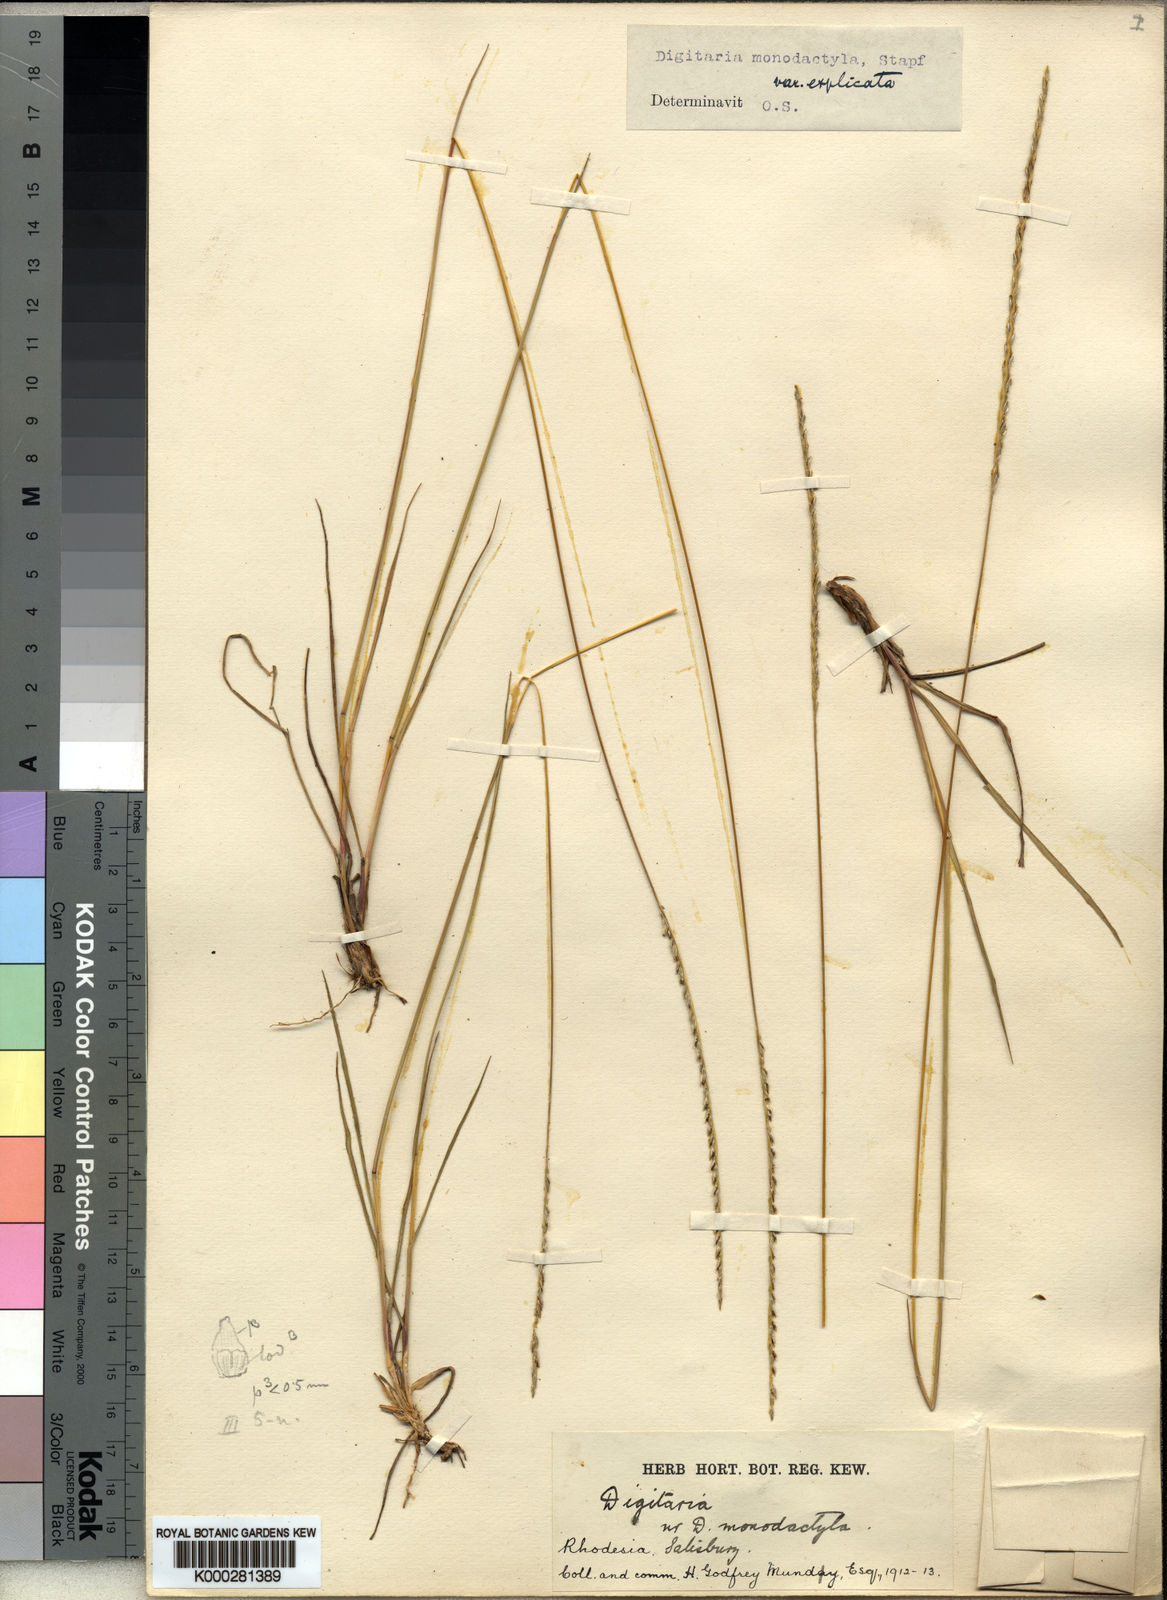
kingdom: Plantae
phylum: Tracheophyta
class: Liliopsida
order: Poales
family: Poaceae
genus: Digitaria
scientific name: Digitaria monodactyla
